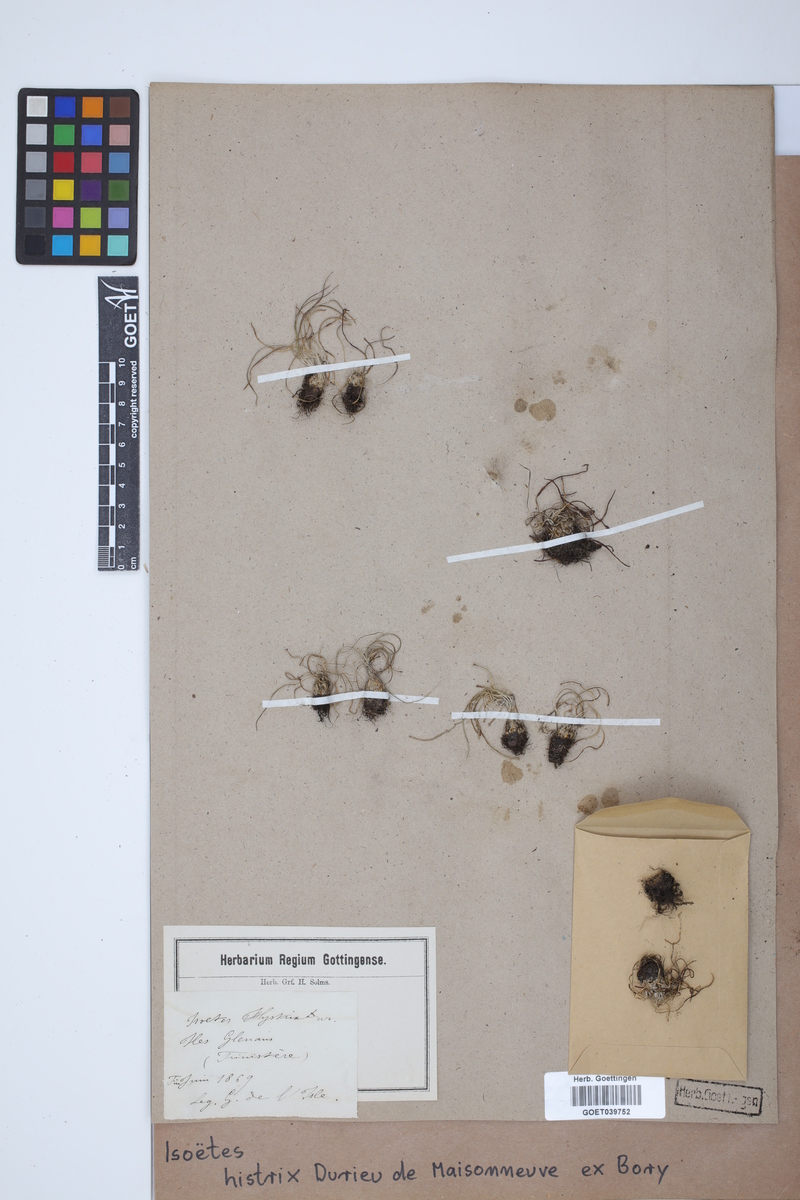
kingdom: Plantae
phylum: Tracheophyta
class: Lycopodiopsida
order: Isoetales
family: Isoetaceae
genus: Isoetes
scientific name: Isoetes histrix
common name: Land quillwort
